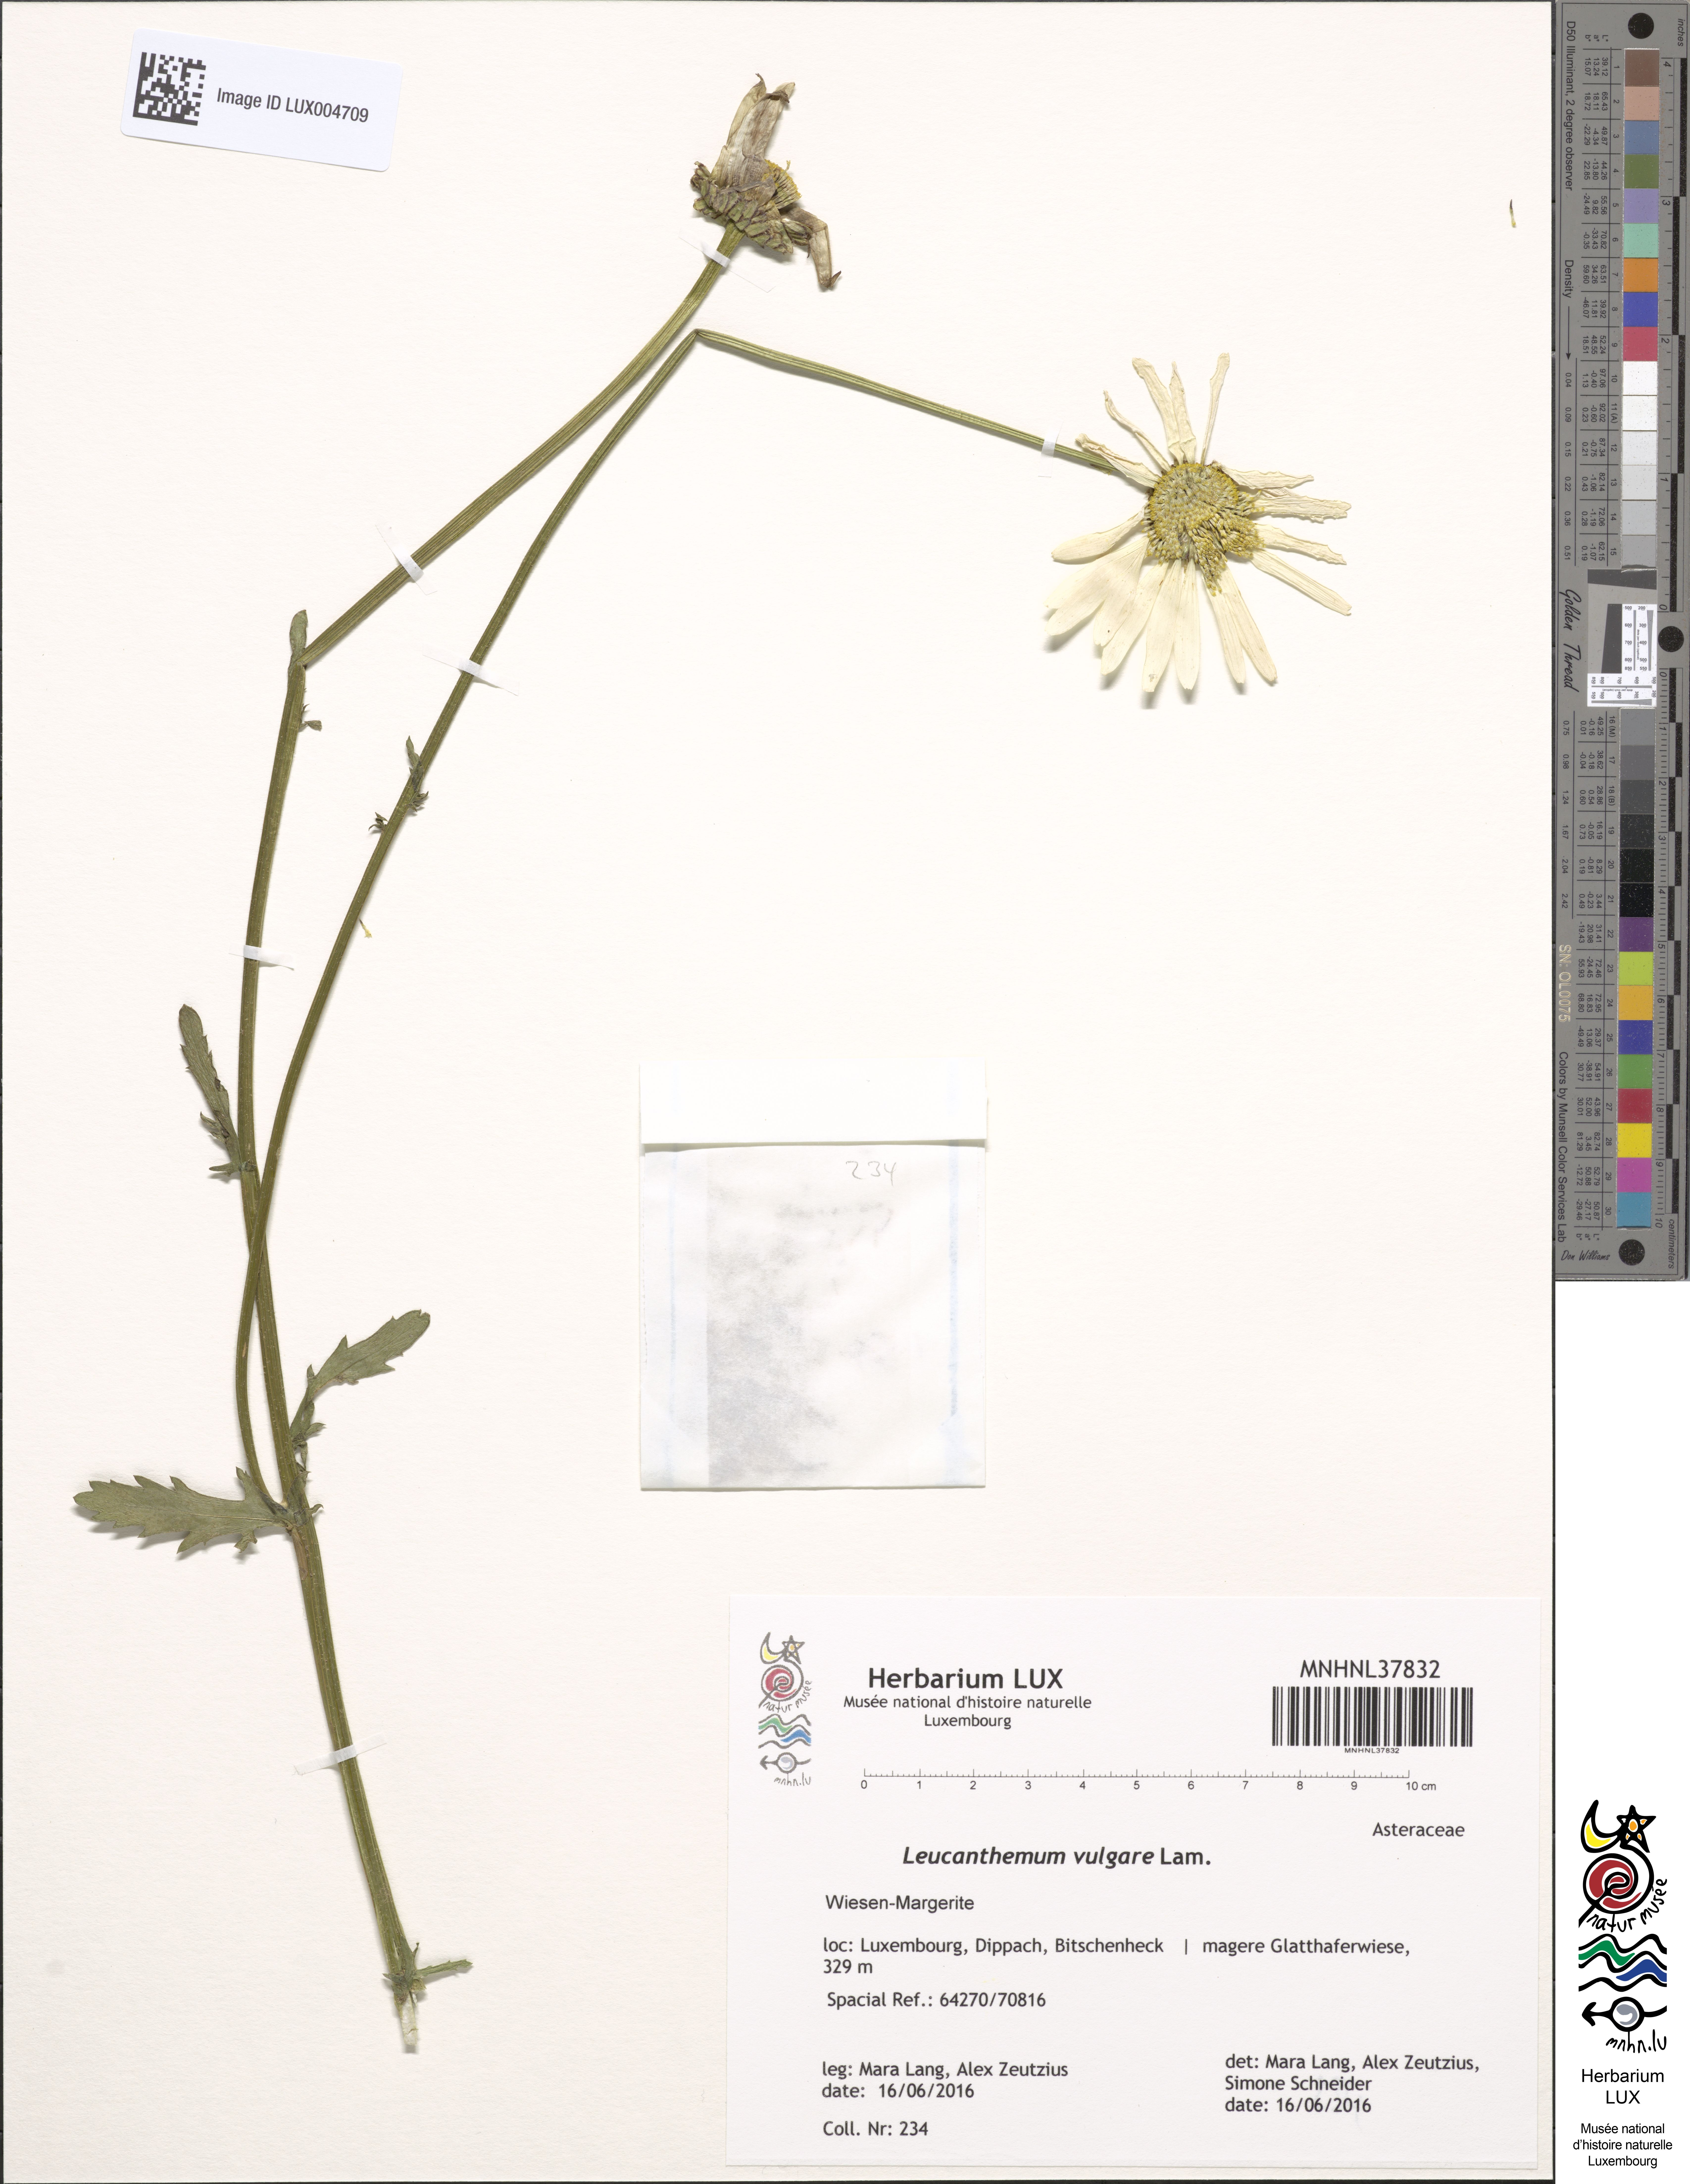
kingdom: Plantae
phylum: Tracheophyta
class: Magnoliopsida
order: Asterales
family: Asteraceae
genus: Leucanthemum
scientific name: Leucanthemum vulgare
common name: Oxeye daisy
